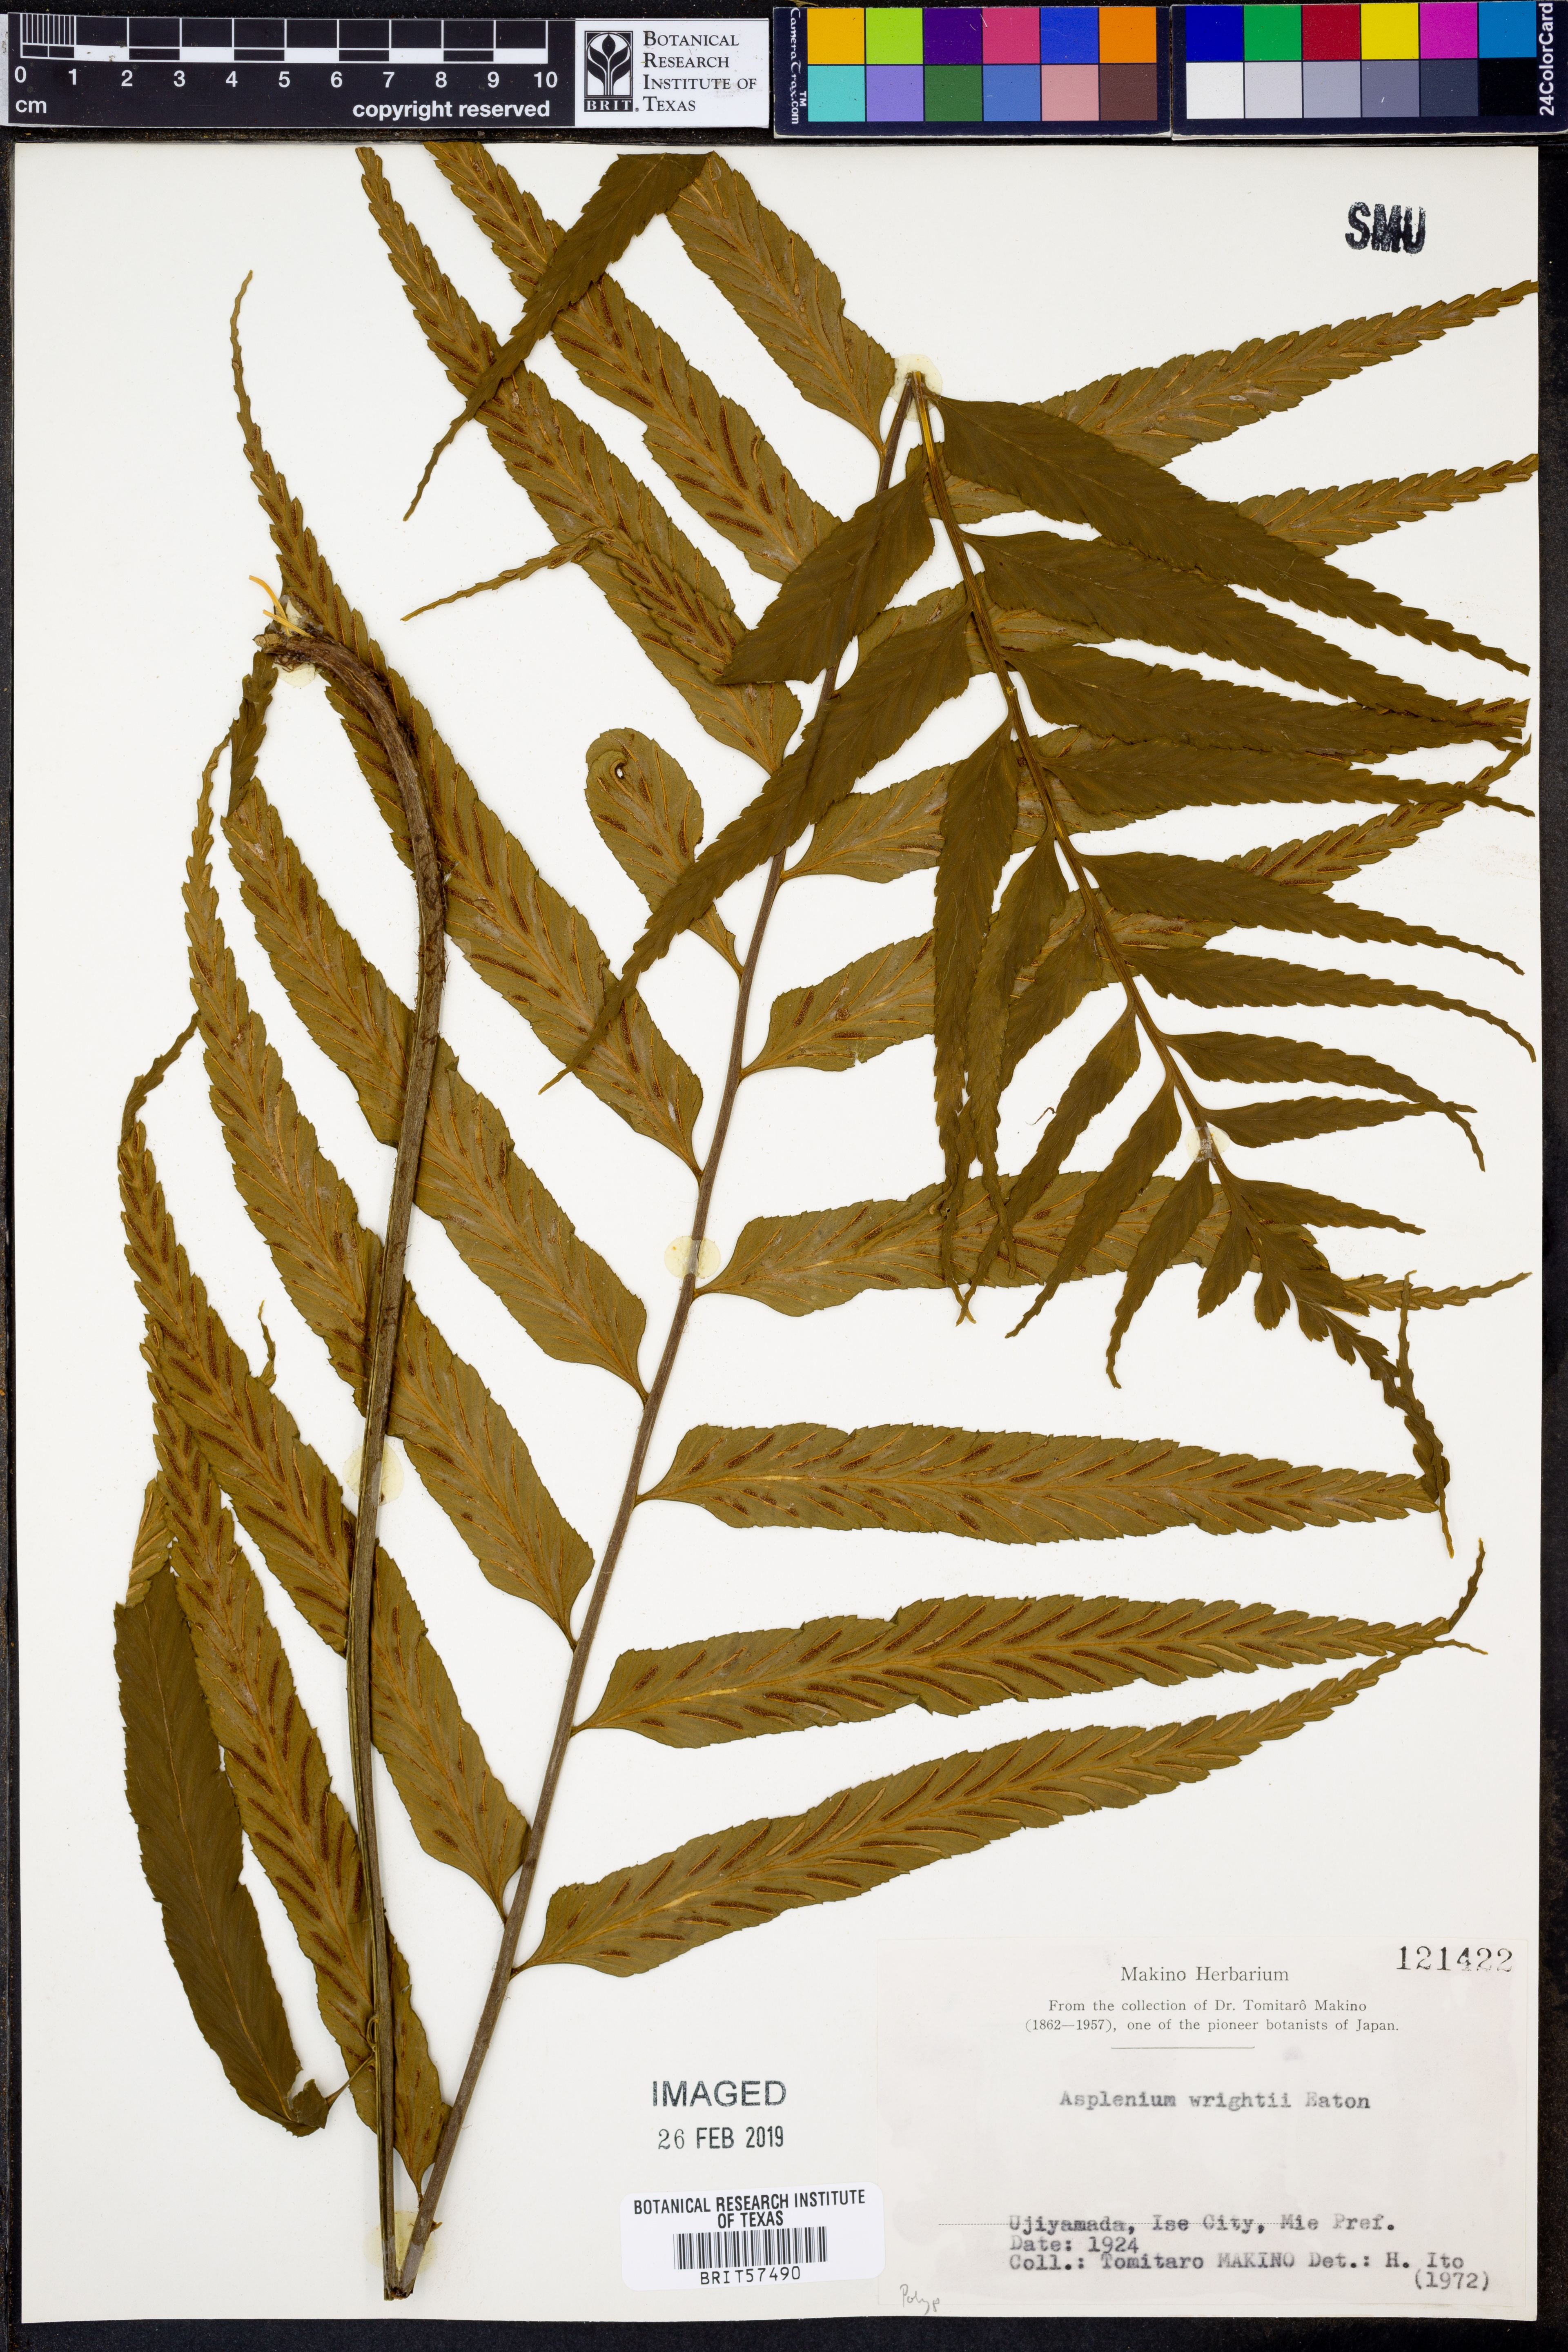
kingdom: Plantae
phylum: Tracheophyta
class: Polypodiopsida
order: Polypodiales
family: Aspleniaceae
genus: Asplenium
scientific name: Asplenium wrightii
